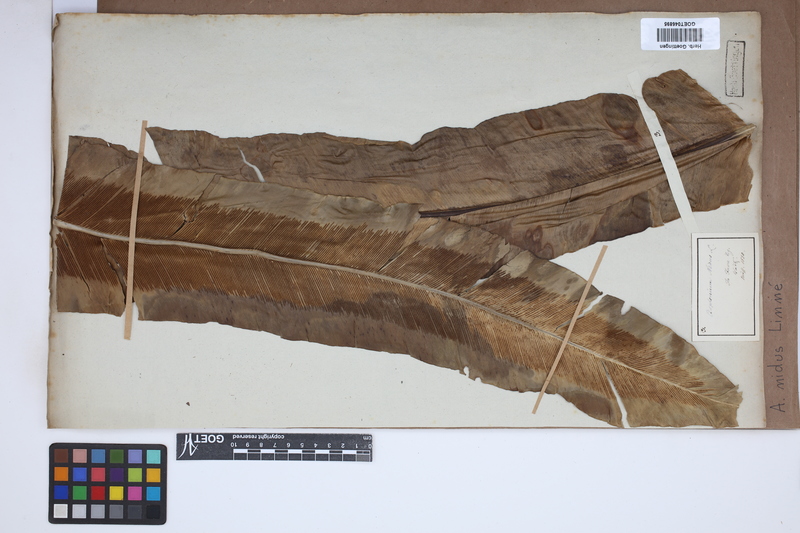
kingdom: Plantae
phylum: Tracheophyta
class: Polypodiopsida
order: Polypodiales
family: Aspleniaceae
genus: Asplenium
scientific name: Asplenium nidus
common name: Bird's-nest fern
